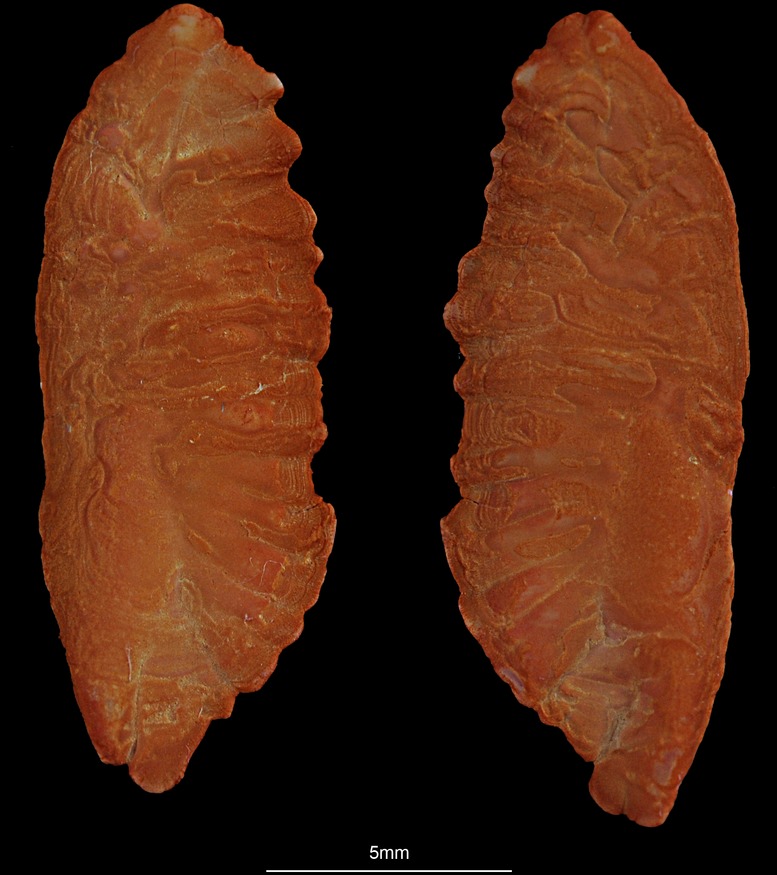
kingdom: Animalia
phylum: Chordata
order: Gadiformes
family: Lotidae
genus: Molva
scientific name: Molva dypterygia
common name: Blue ling
